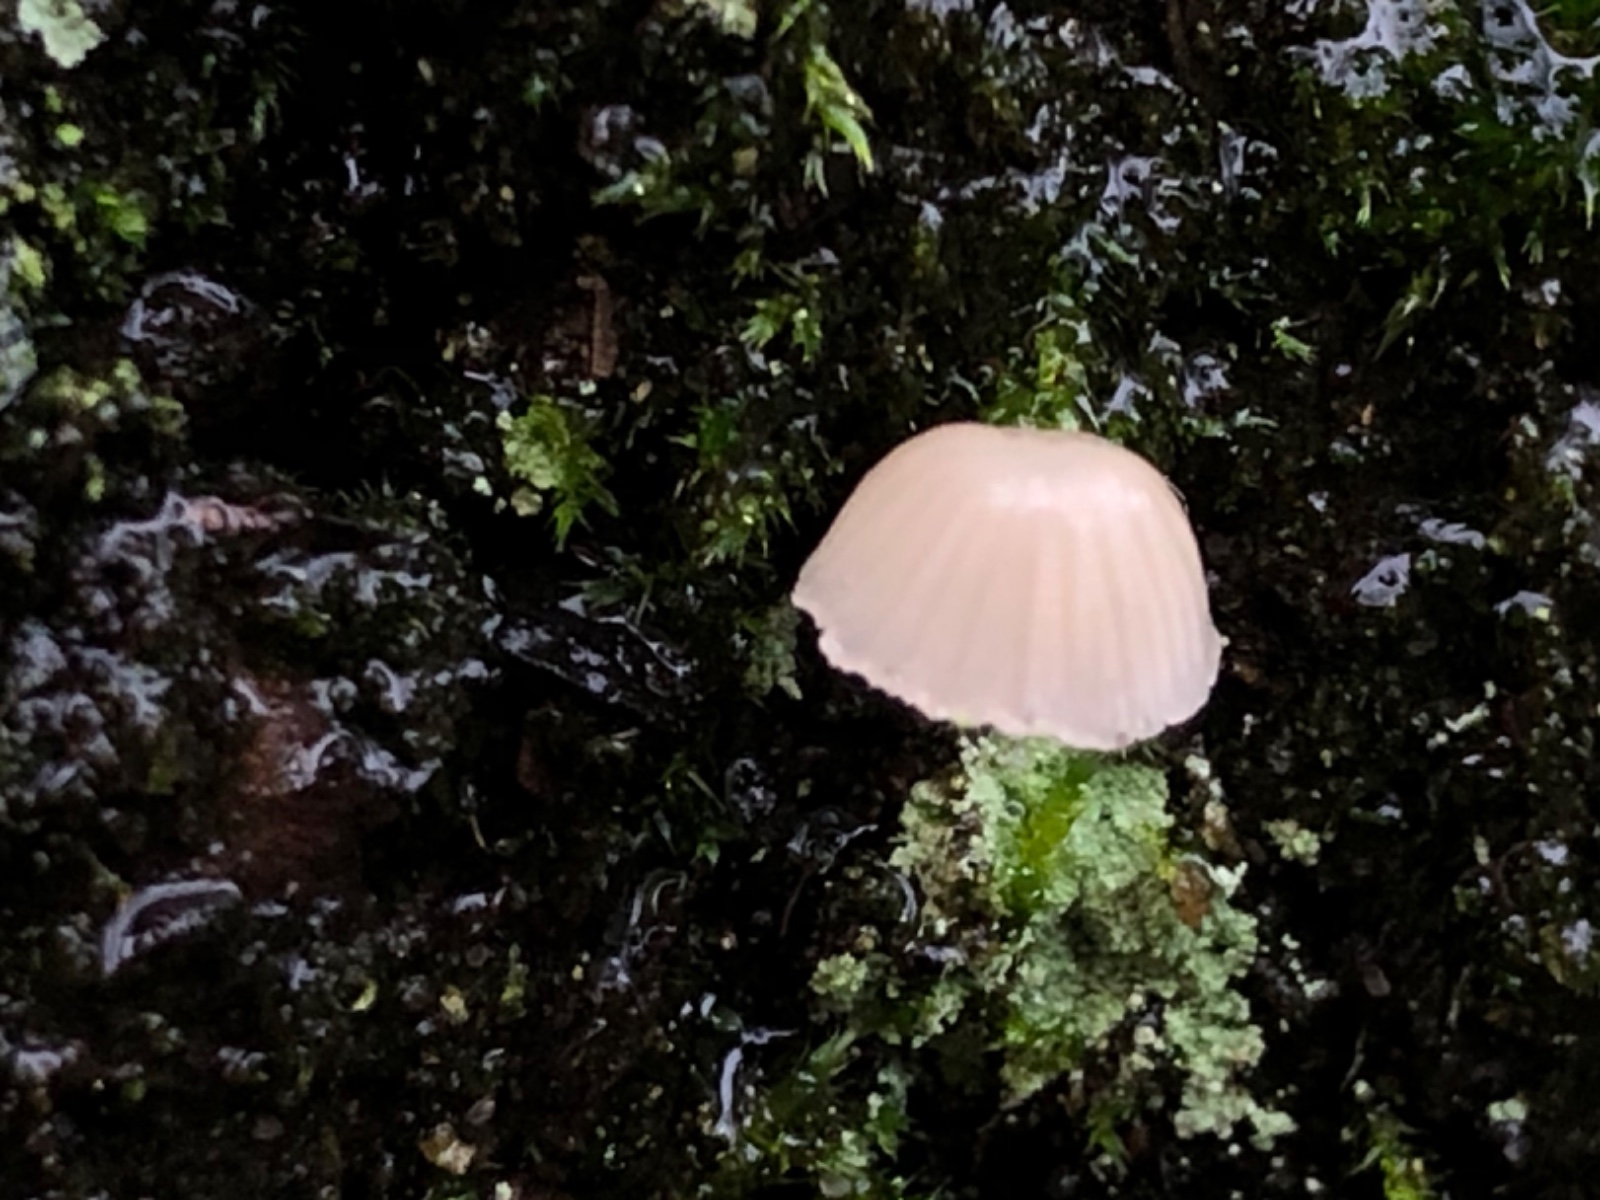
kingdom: Fungi
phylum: Basidiomycota
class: Agaricomycetes
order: Agaricales
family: Porotheleaceae
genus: Phloeomana
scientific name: Phloeomana
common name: huesvamp
